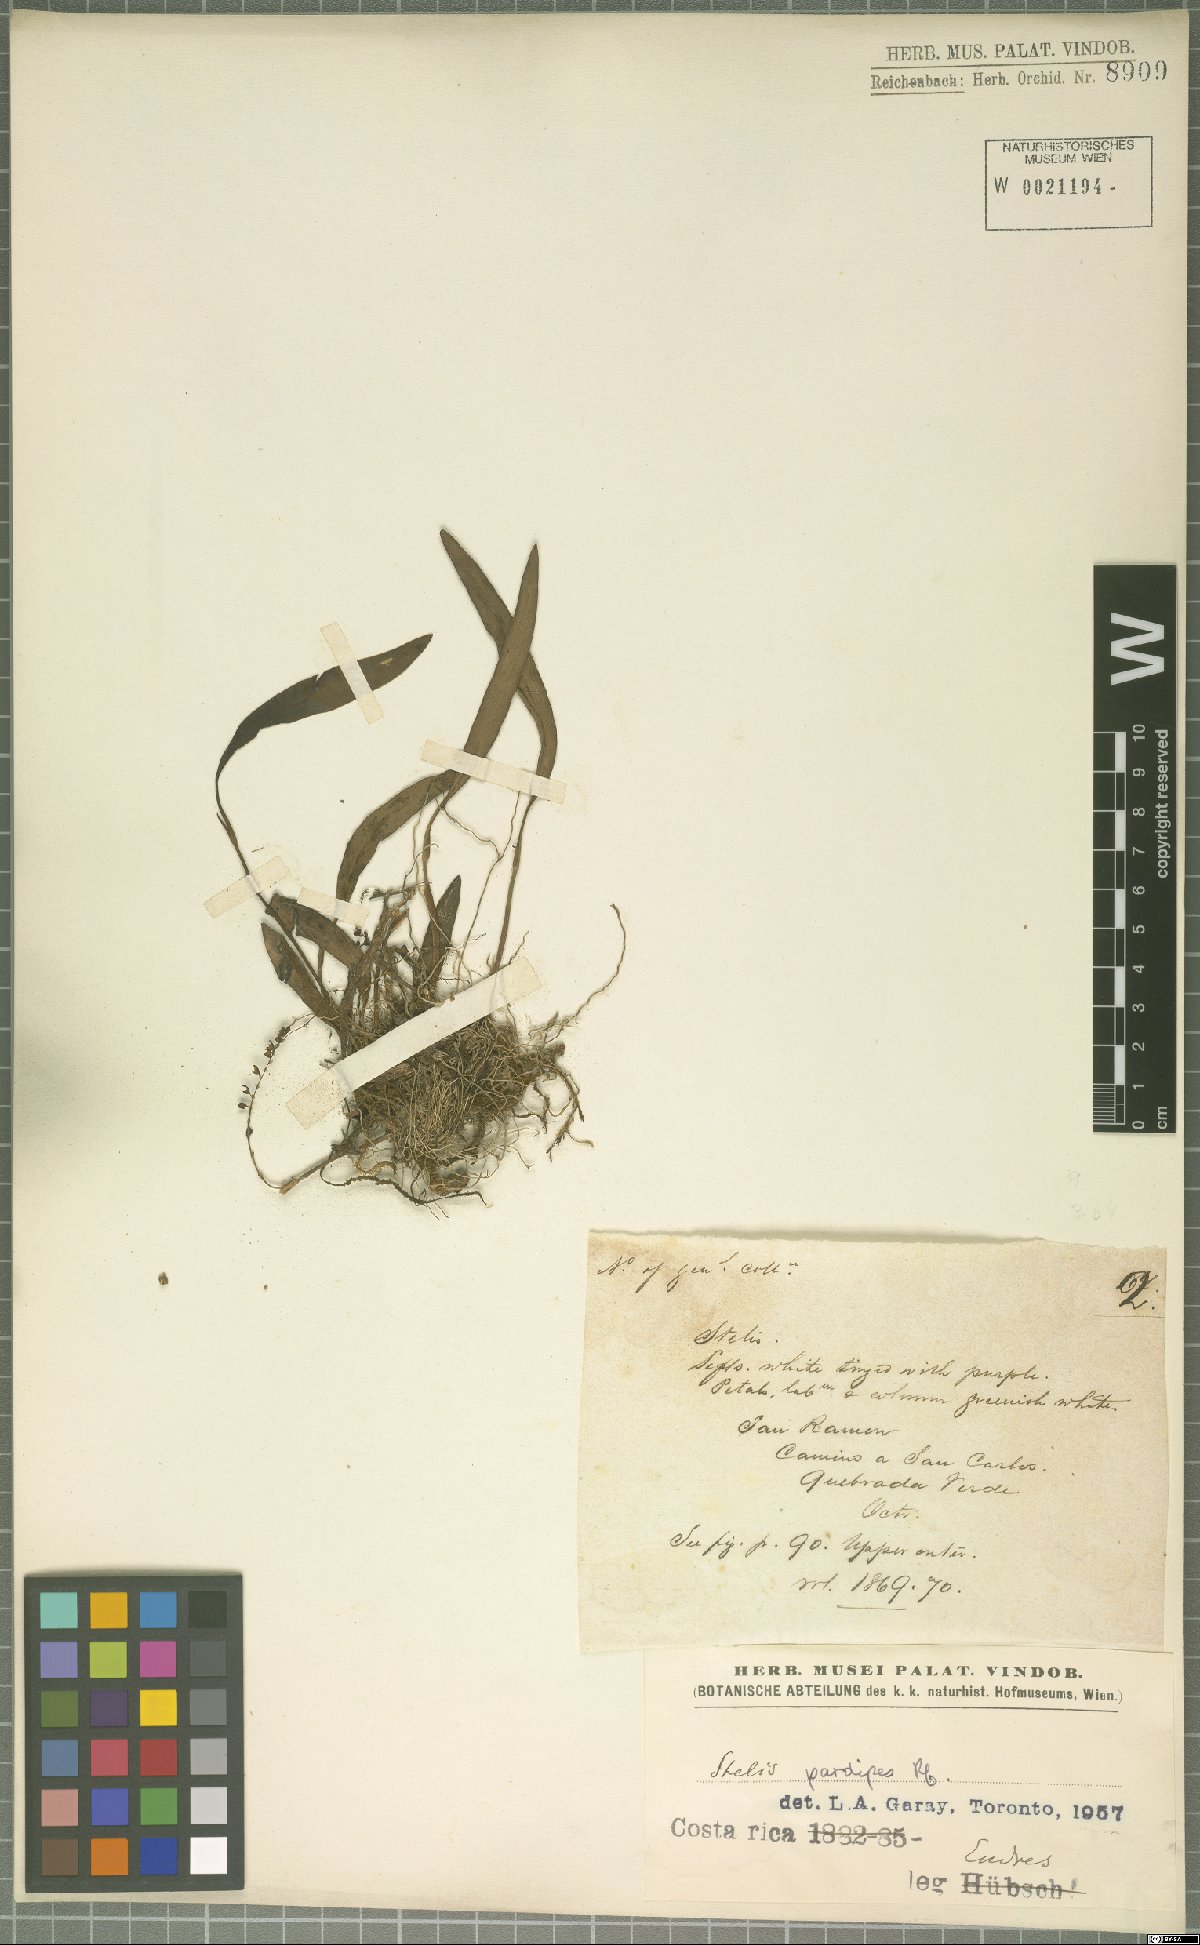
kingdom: Plantae
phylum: Tracheophyta
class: Liliopsida
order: Asparagales
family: Orchidaceae
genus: Stelis
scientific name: Stelis pardipes
